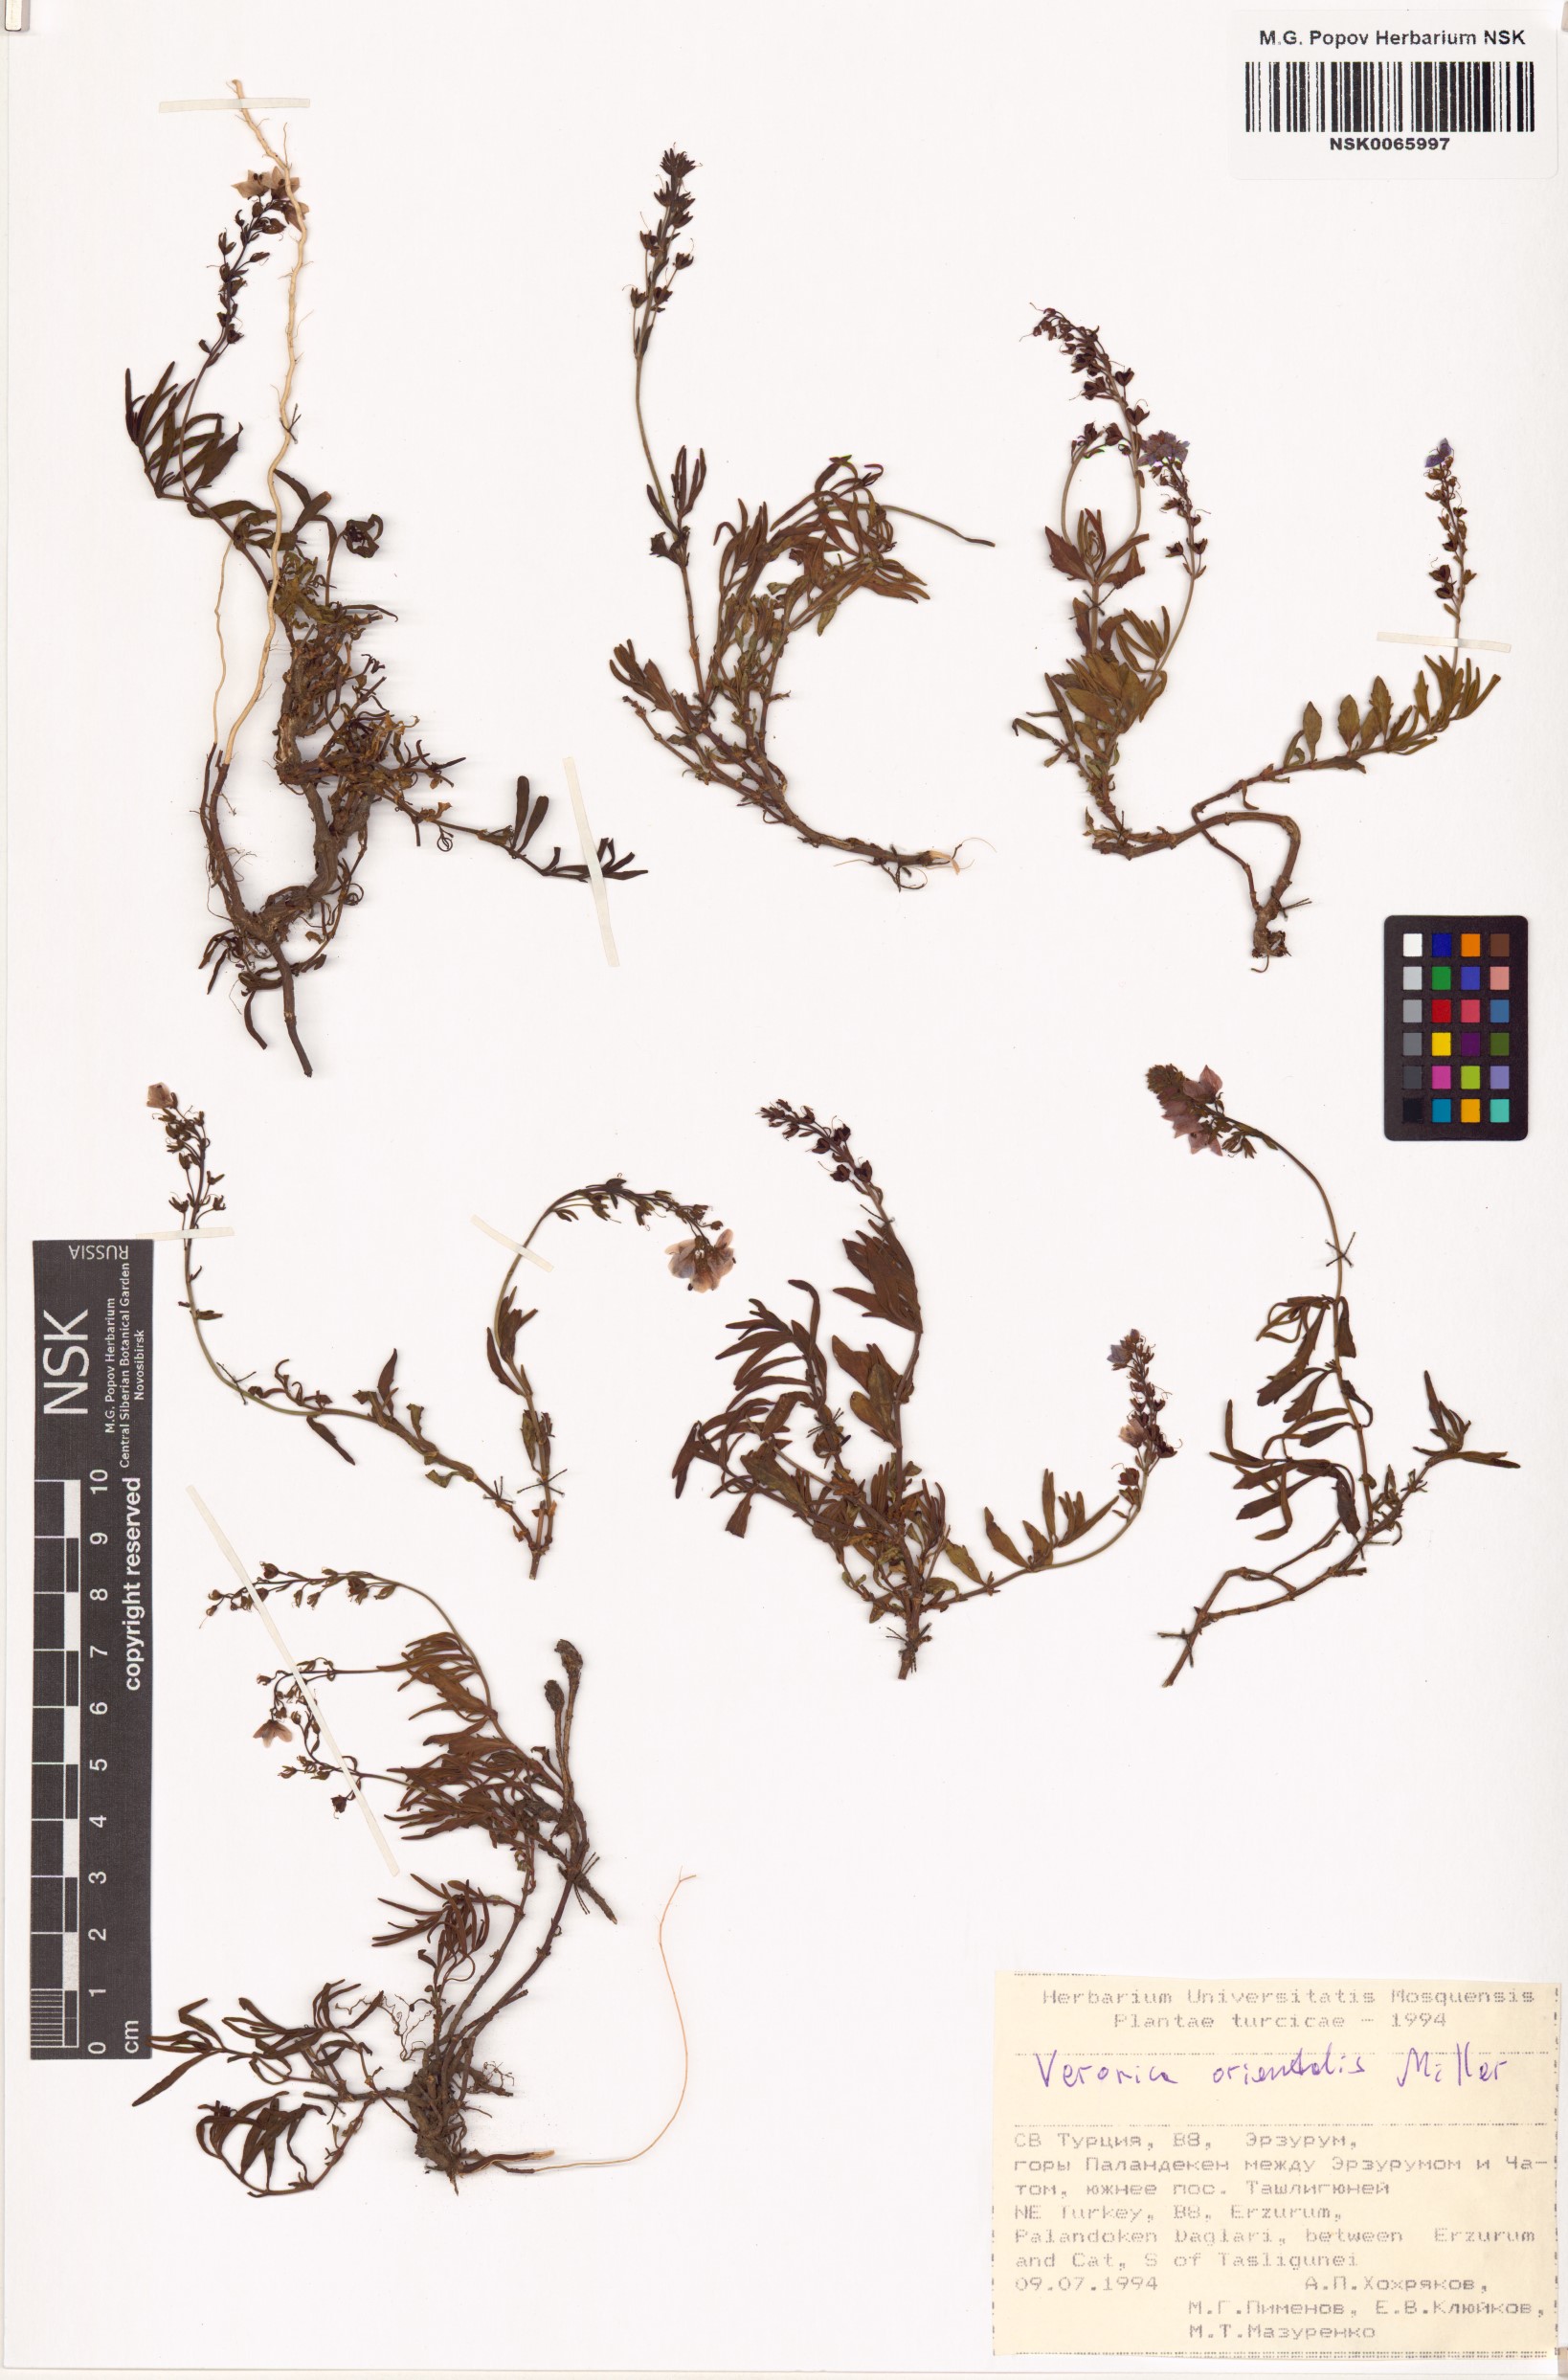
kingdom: Plantae
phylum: Tracheophyta
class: Magnoliopsida
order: Lamiales
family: Plantaginaceae
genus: Veronica
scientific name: Veronica orientalis
